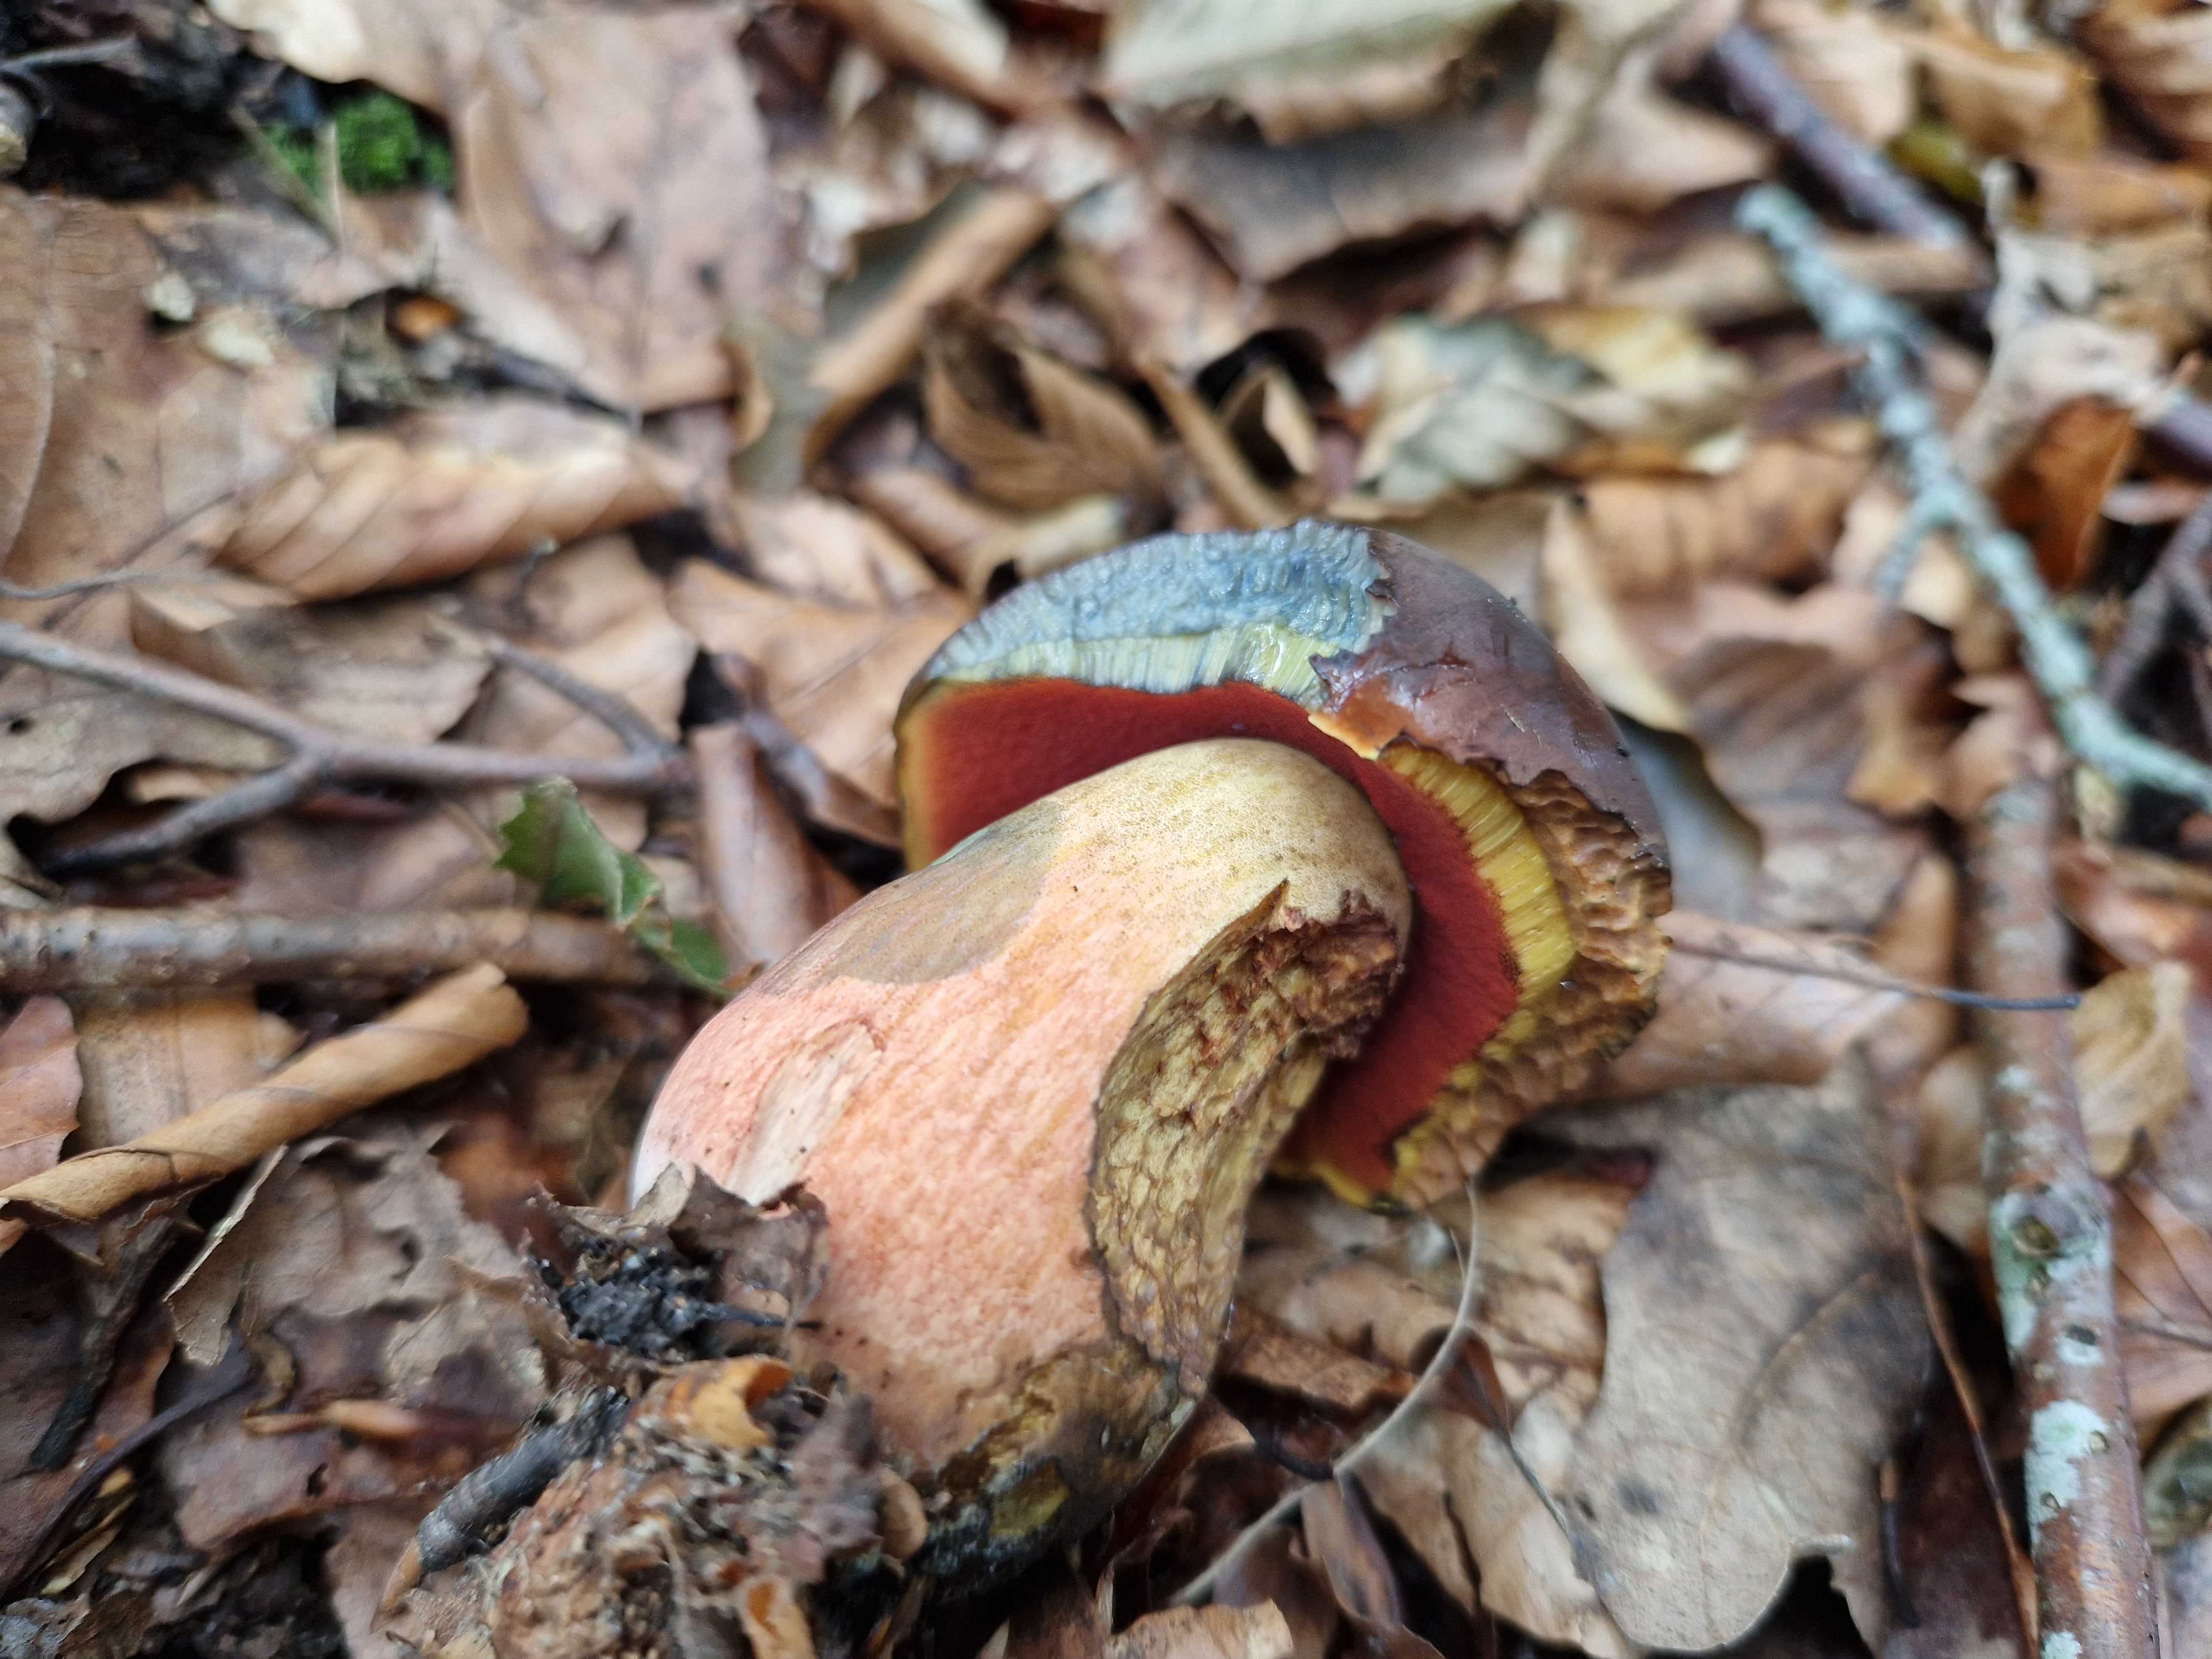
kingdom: Fungi
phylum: Basidiomycota
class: Agaricomycetes
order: Boletales
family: Boletaceae
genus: Neoboletus
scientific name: Neoboletus
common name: indigorørhat
